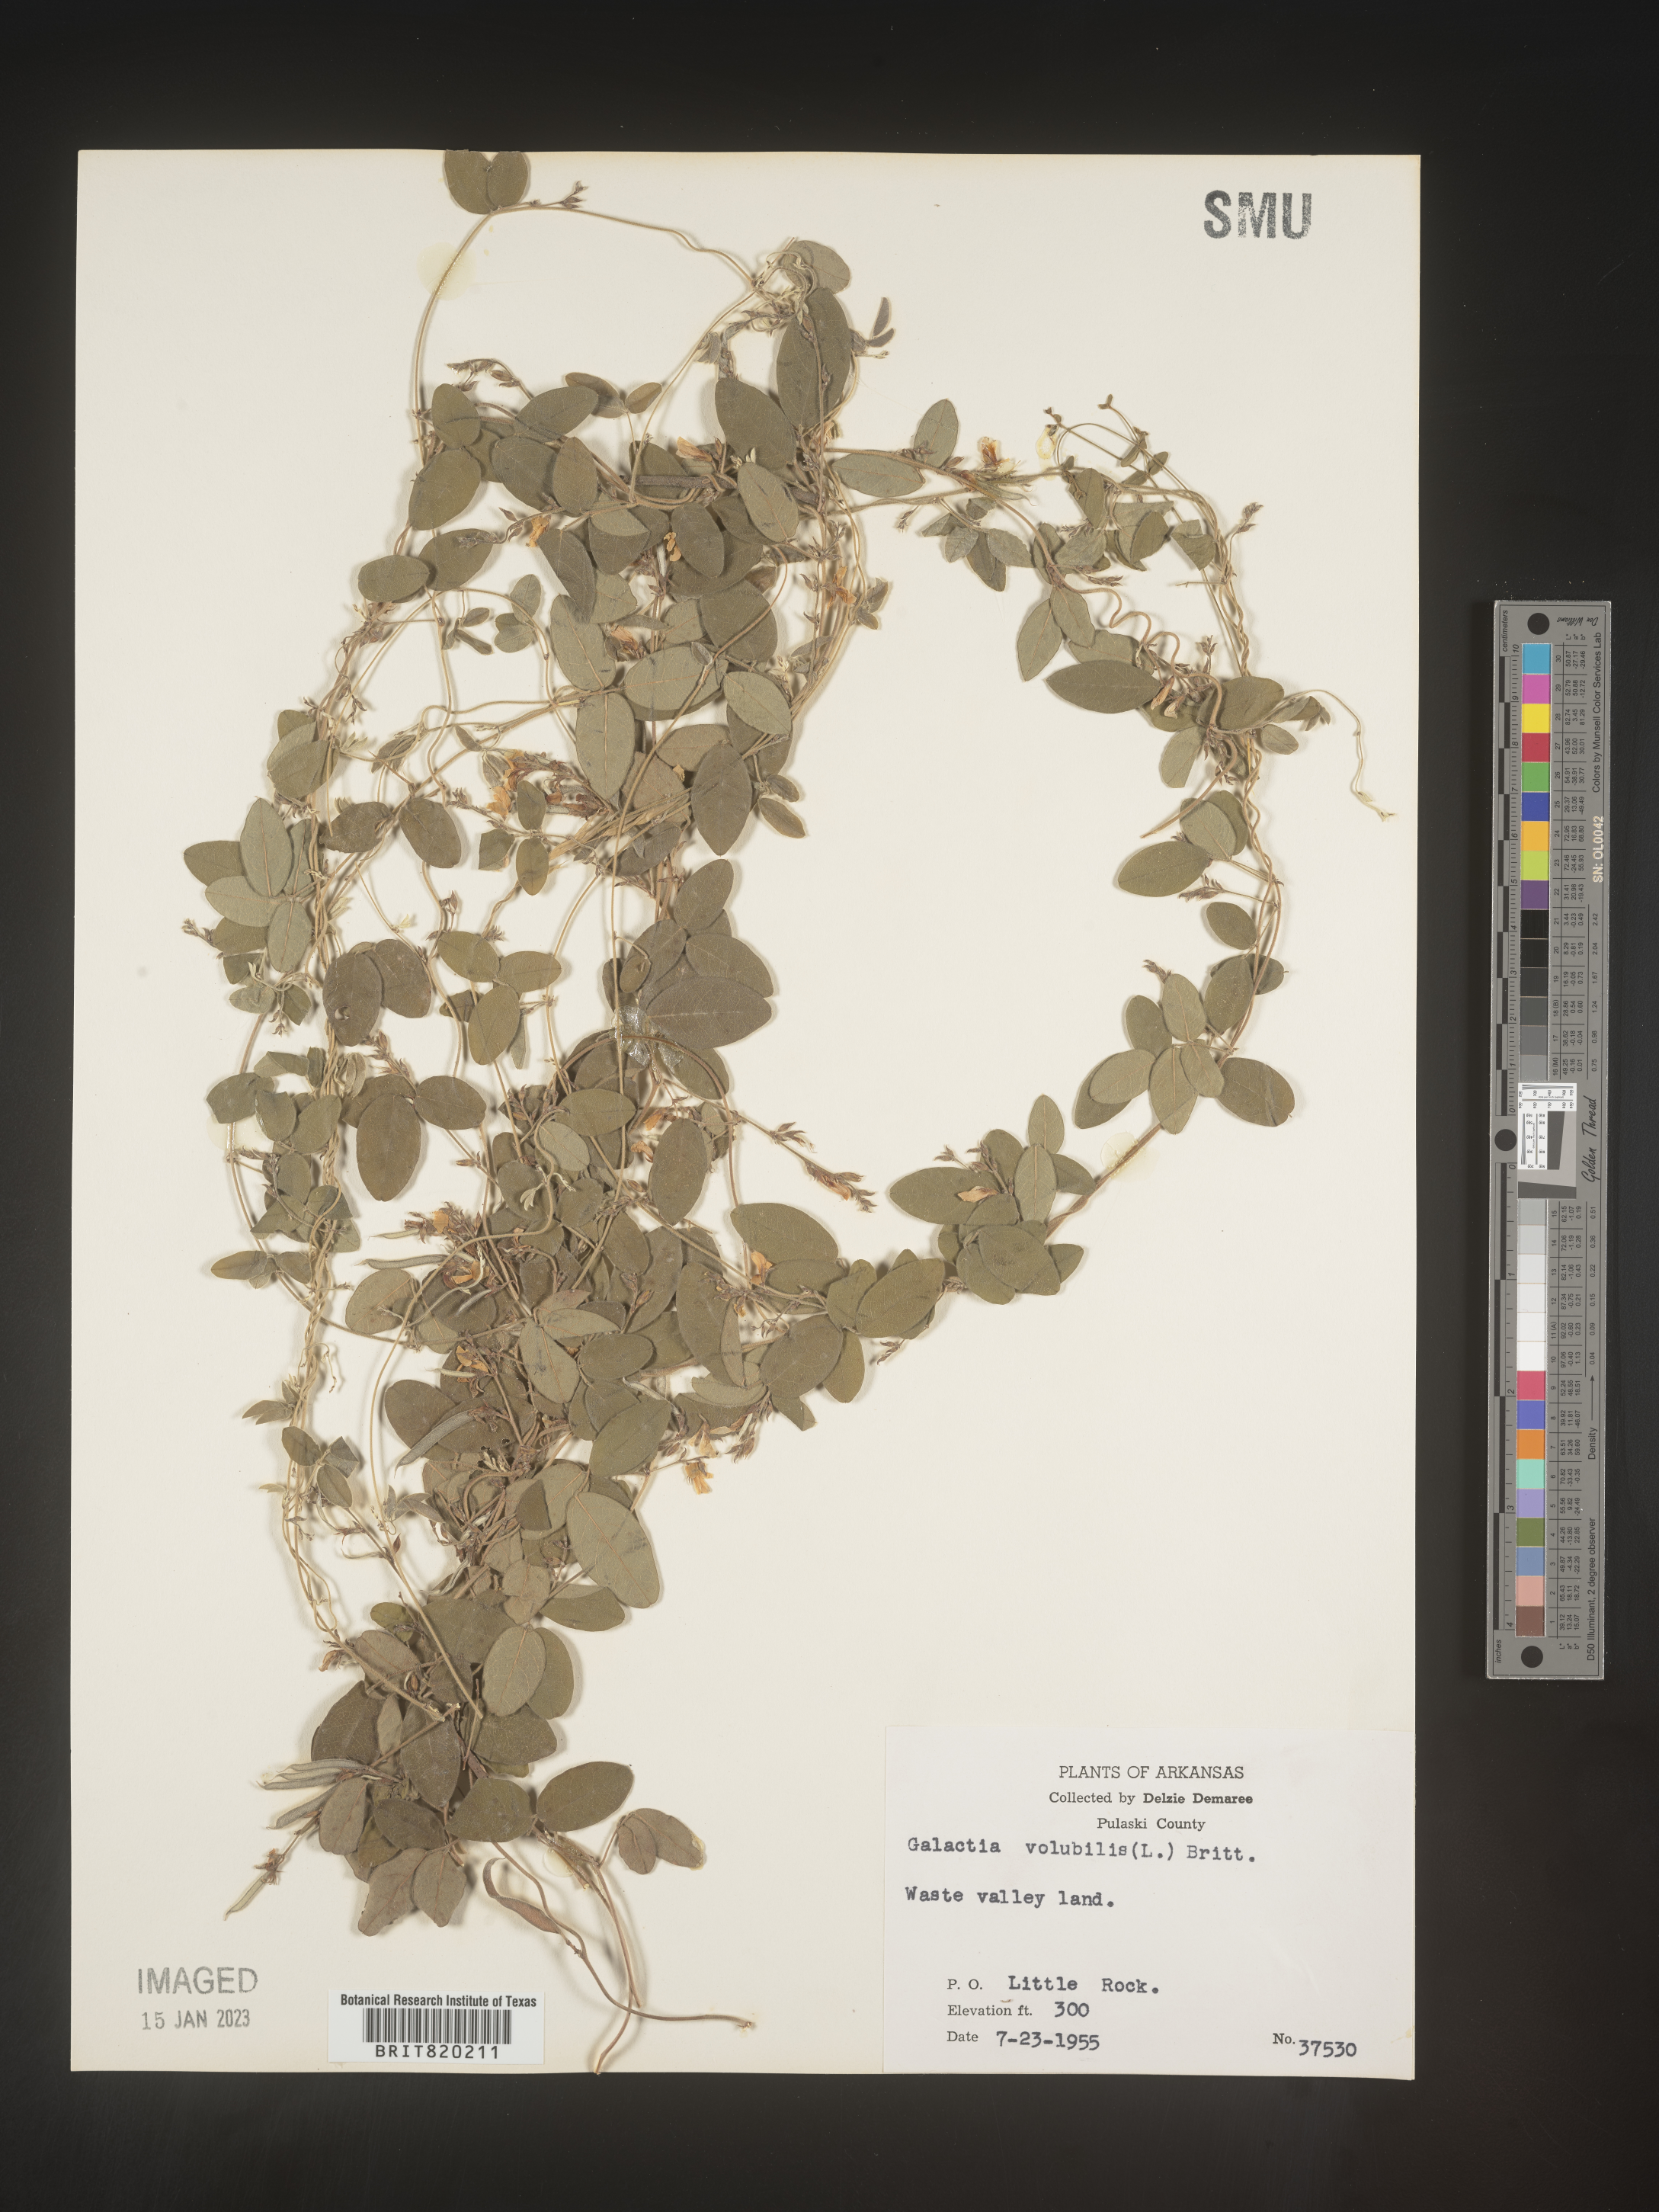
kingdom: Plantae
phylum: Tracheophyta
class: Magnoliopsida
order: Fabales
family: Fabaceae
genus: Galactia
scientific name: Galactia volubilis
